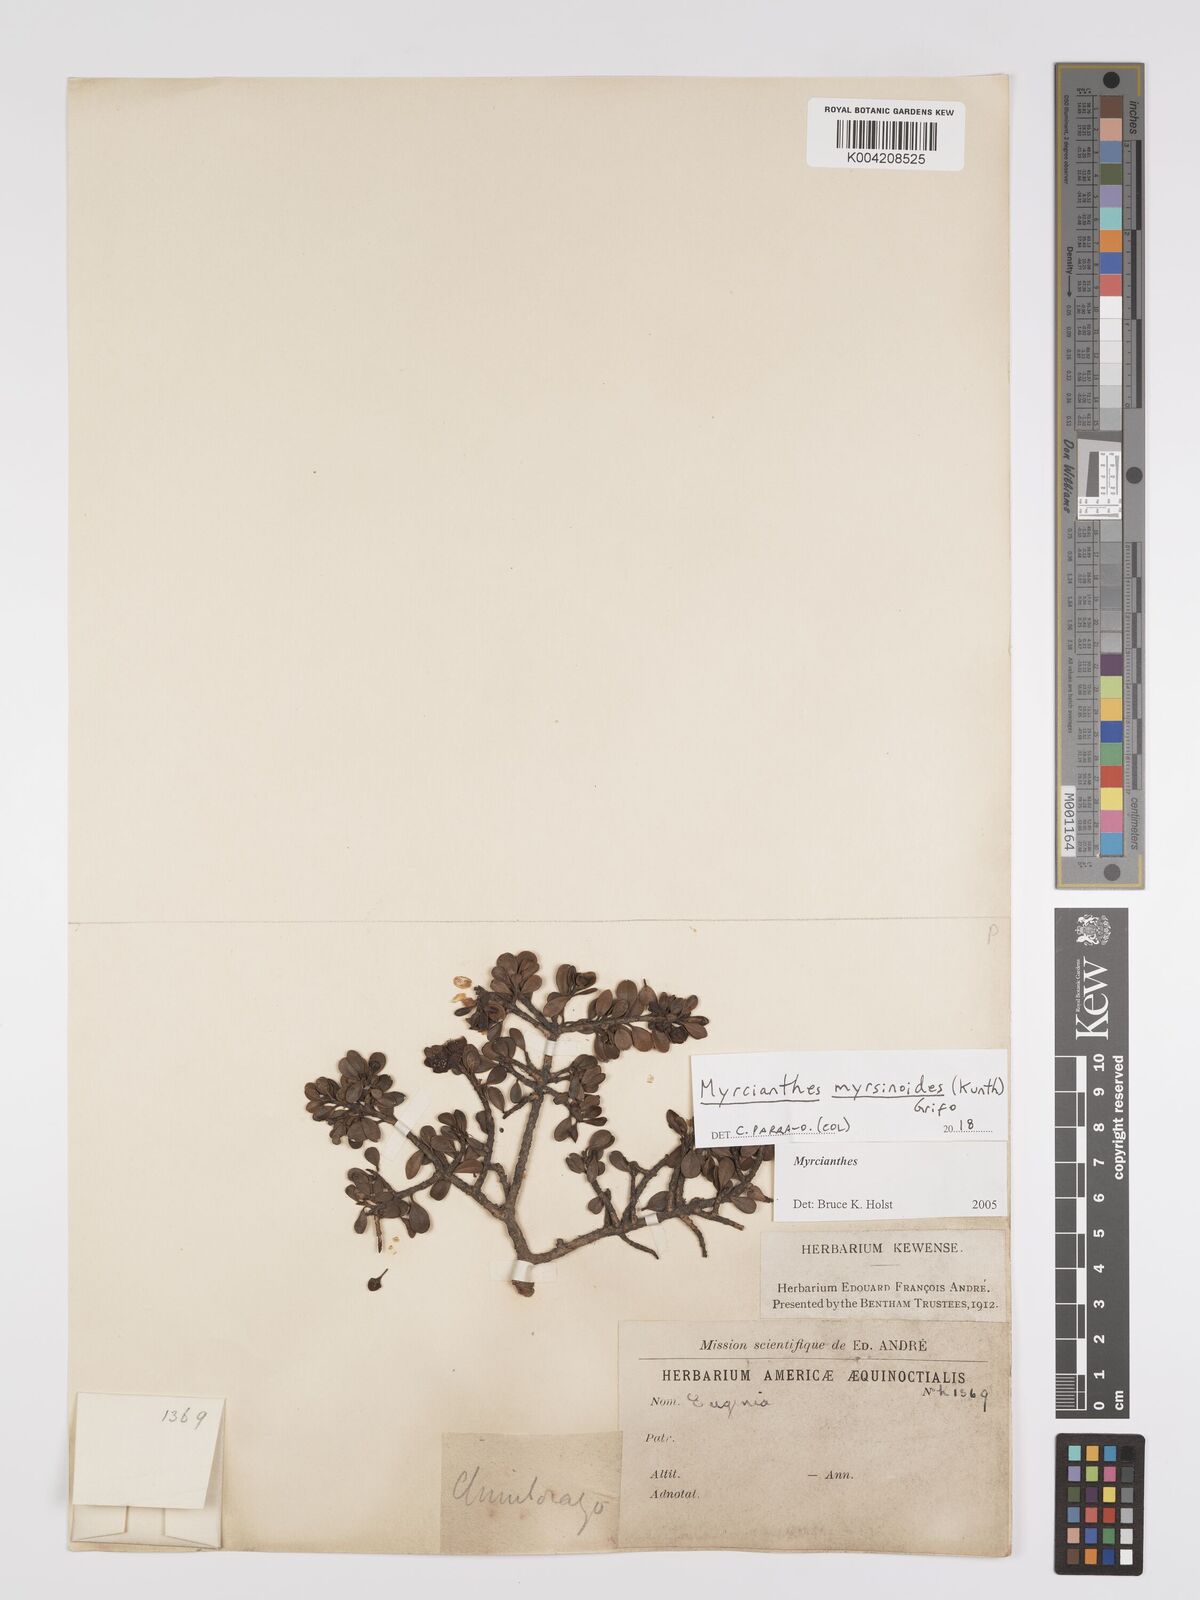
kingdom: Plantae
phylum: Tracheophyta
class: Magnoliopsida
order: Myrtales
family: Myrtaceae
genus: Myrcianthes
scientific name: Myrcianthes myrsinoides
